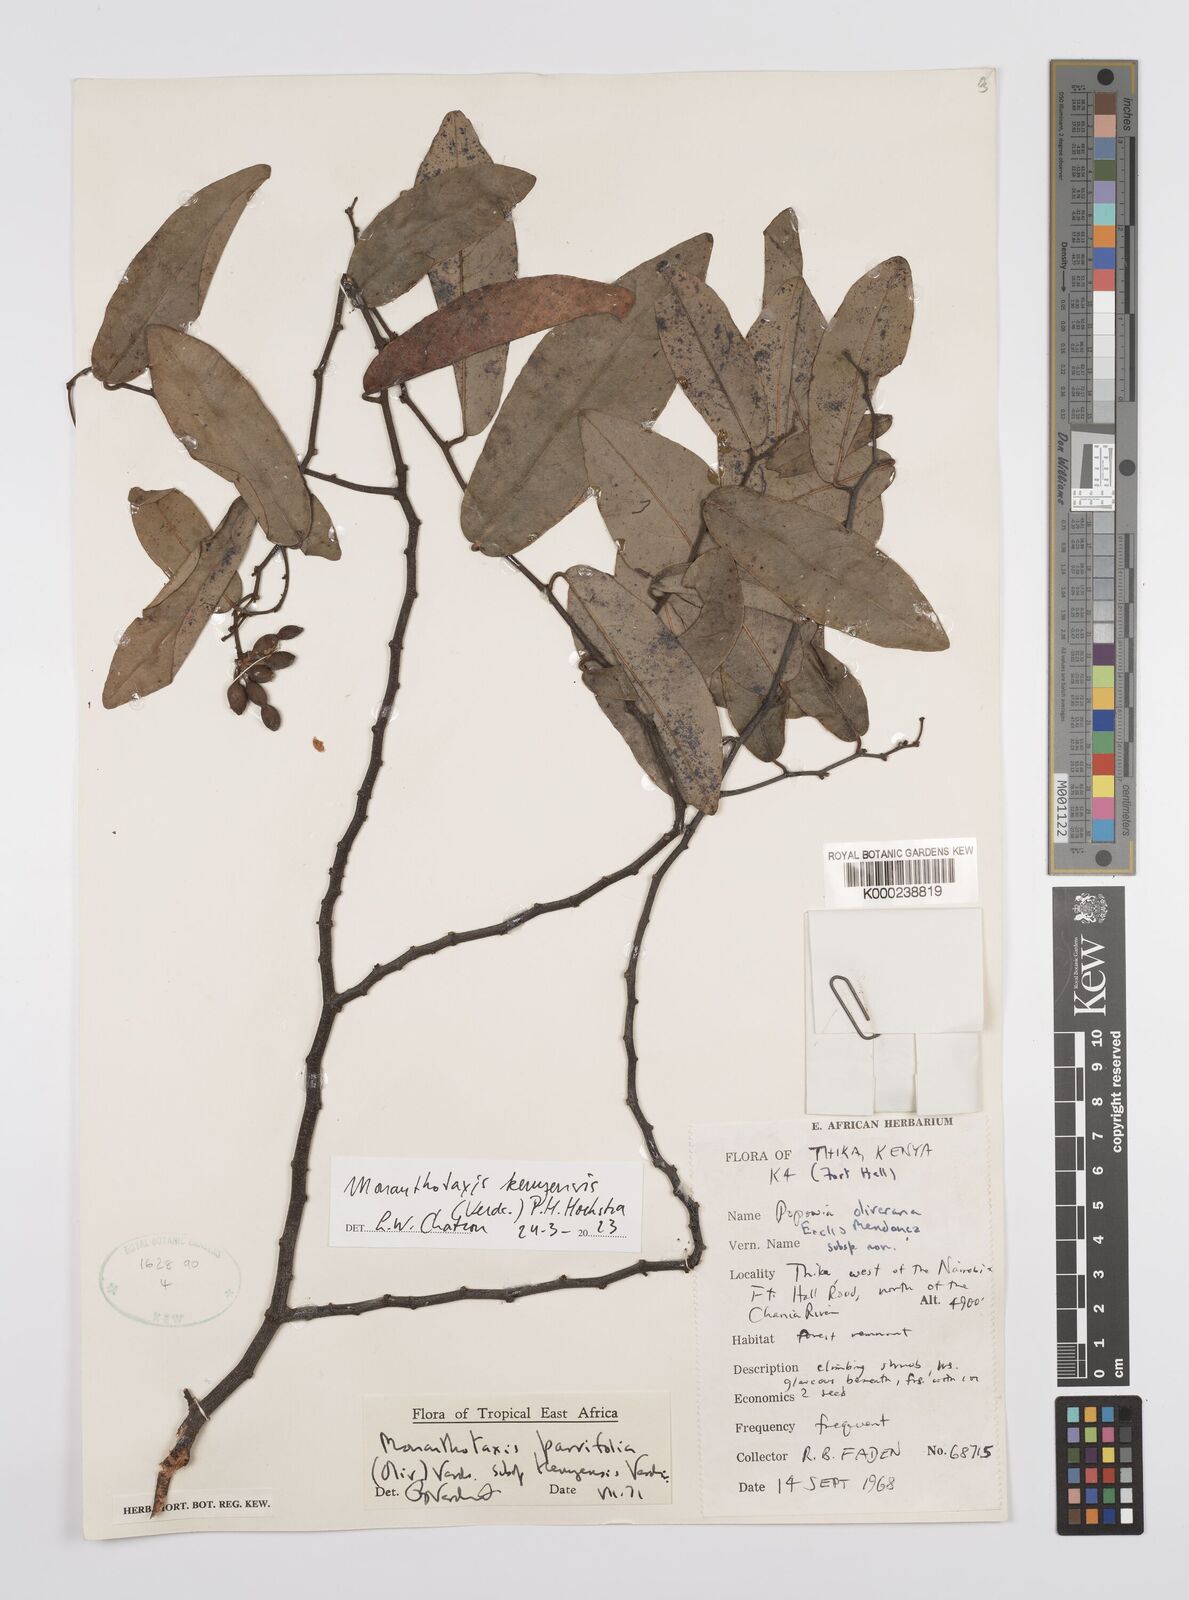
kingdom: Plantae
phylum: Tracheophyta
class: Magnoliopsida
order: Magnoliales
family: Annonaceae
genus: Monanthotaxis
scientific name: Monanthotaxis parvifolia
